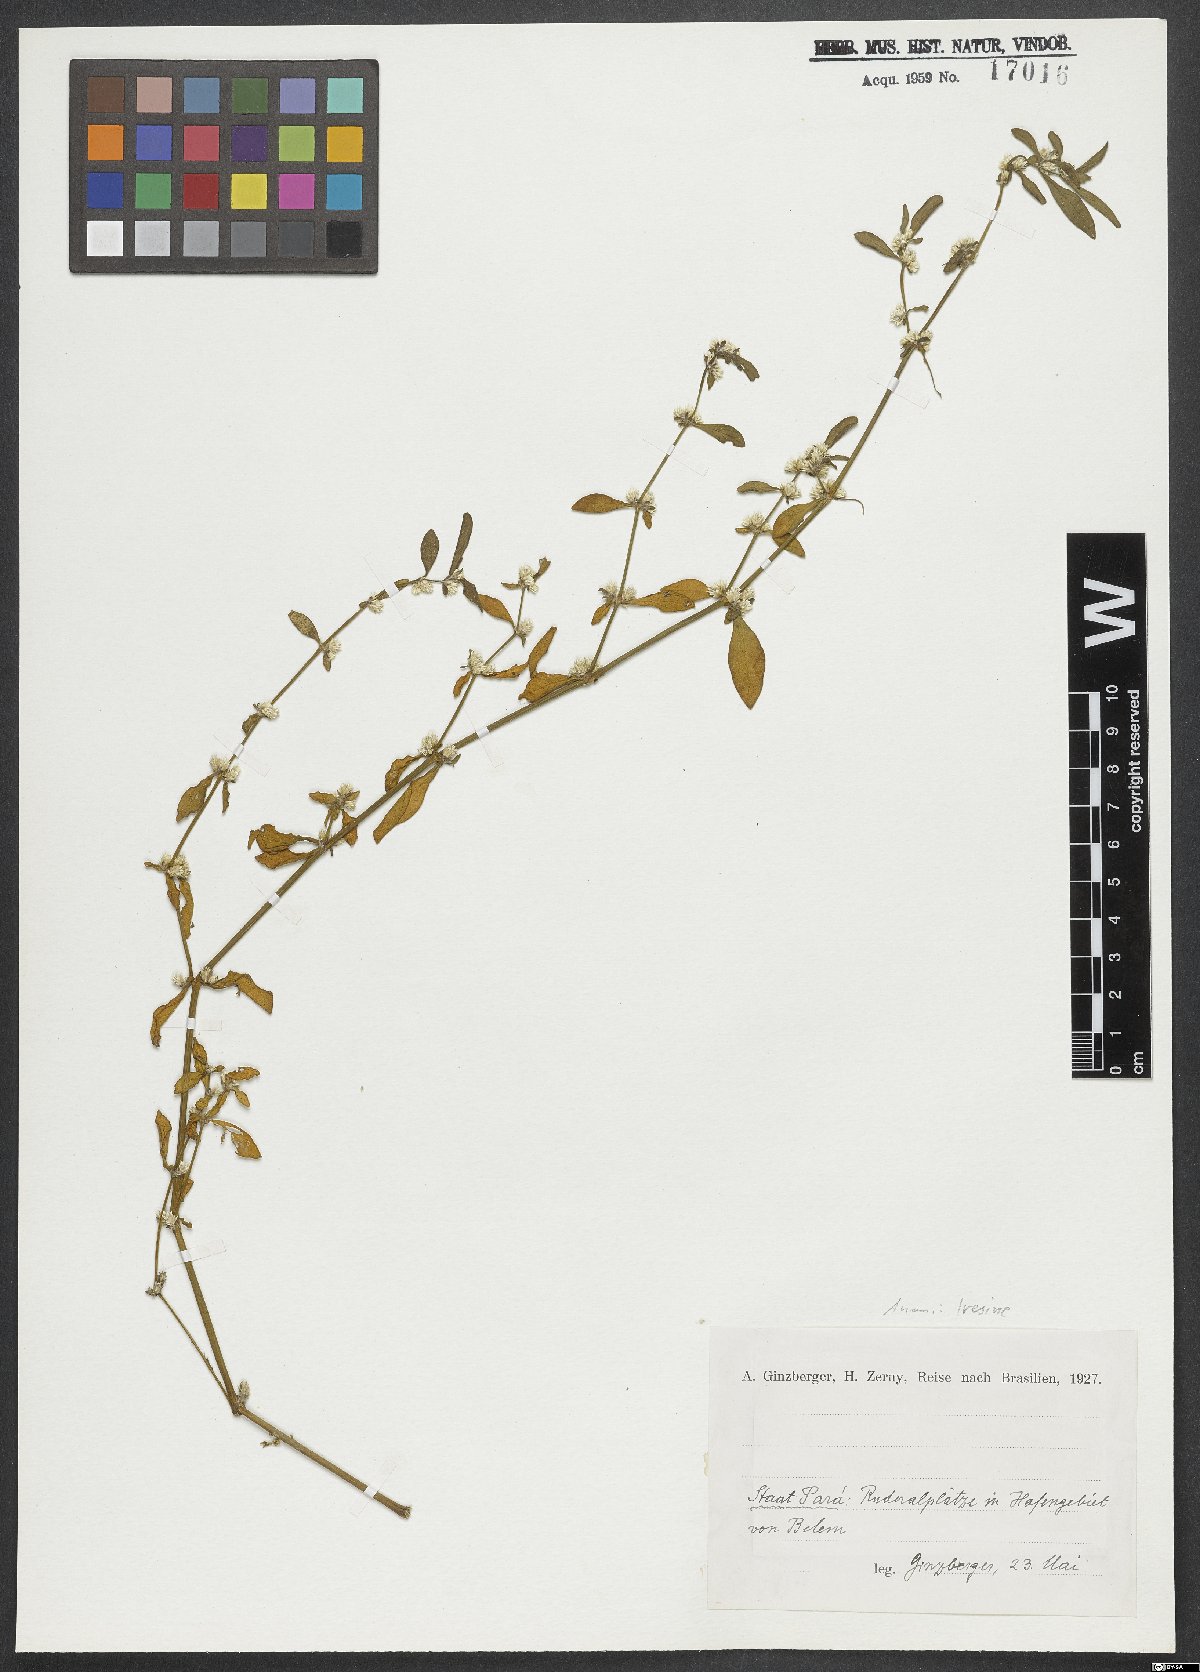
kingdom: Plantae
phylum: Tracheophyta
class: Magnoliopsida
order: Caryophyllales
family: Amaranthaceae
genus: Iresine
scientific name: Iresine
